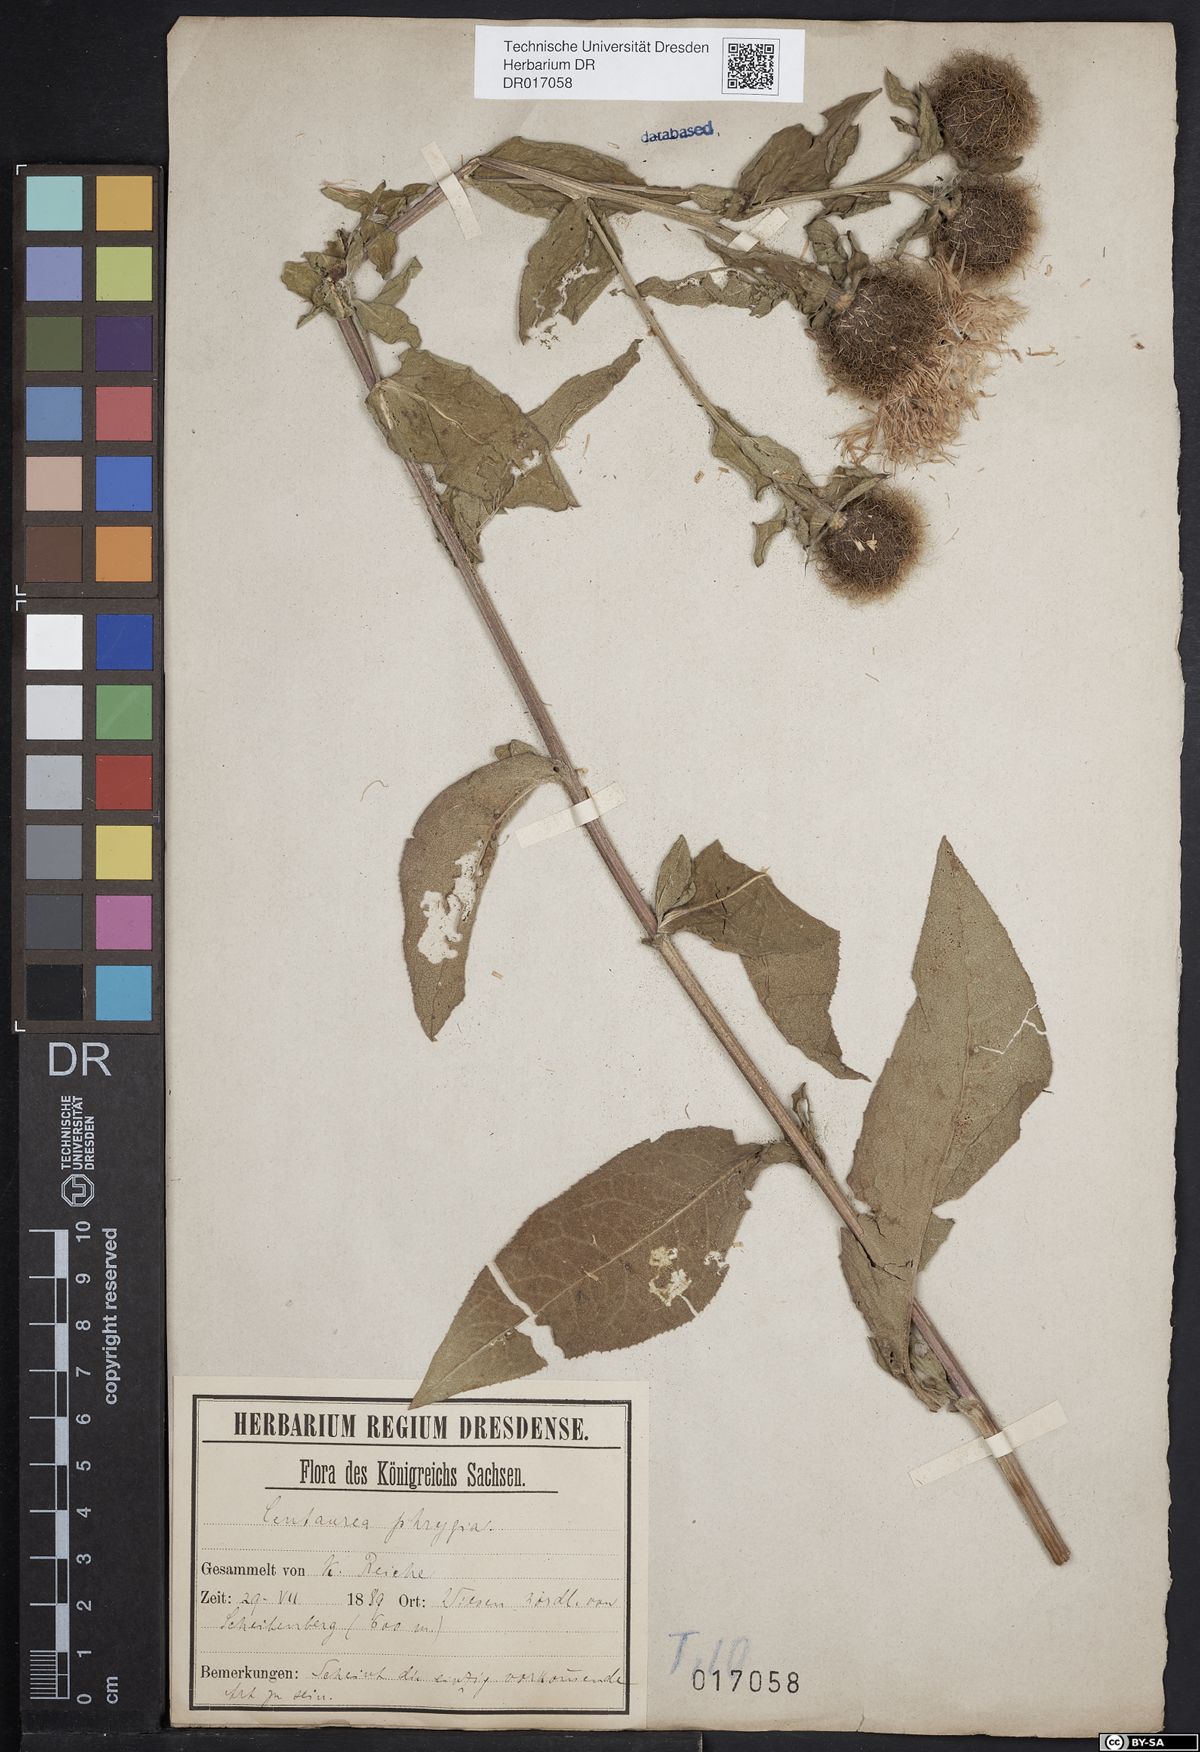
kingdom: Plantae
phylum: Tracheophyta
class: Magnoliopsida
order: Asterales
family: Asteraceae
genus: Centaurea
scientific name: Centaurea pseudophrygia
